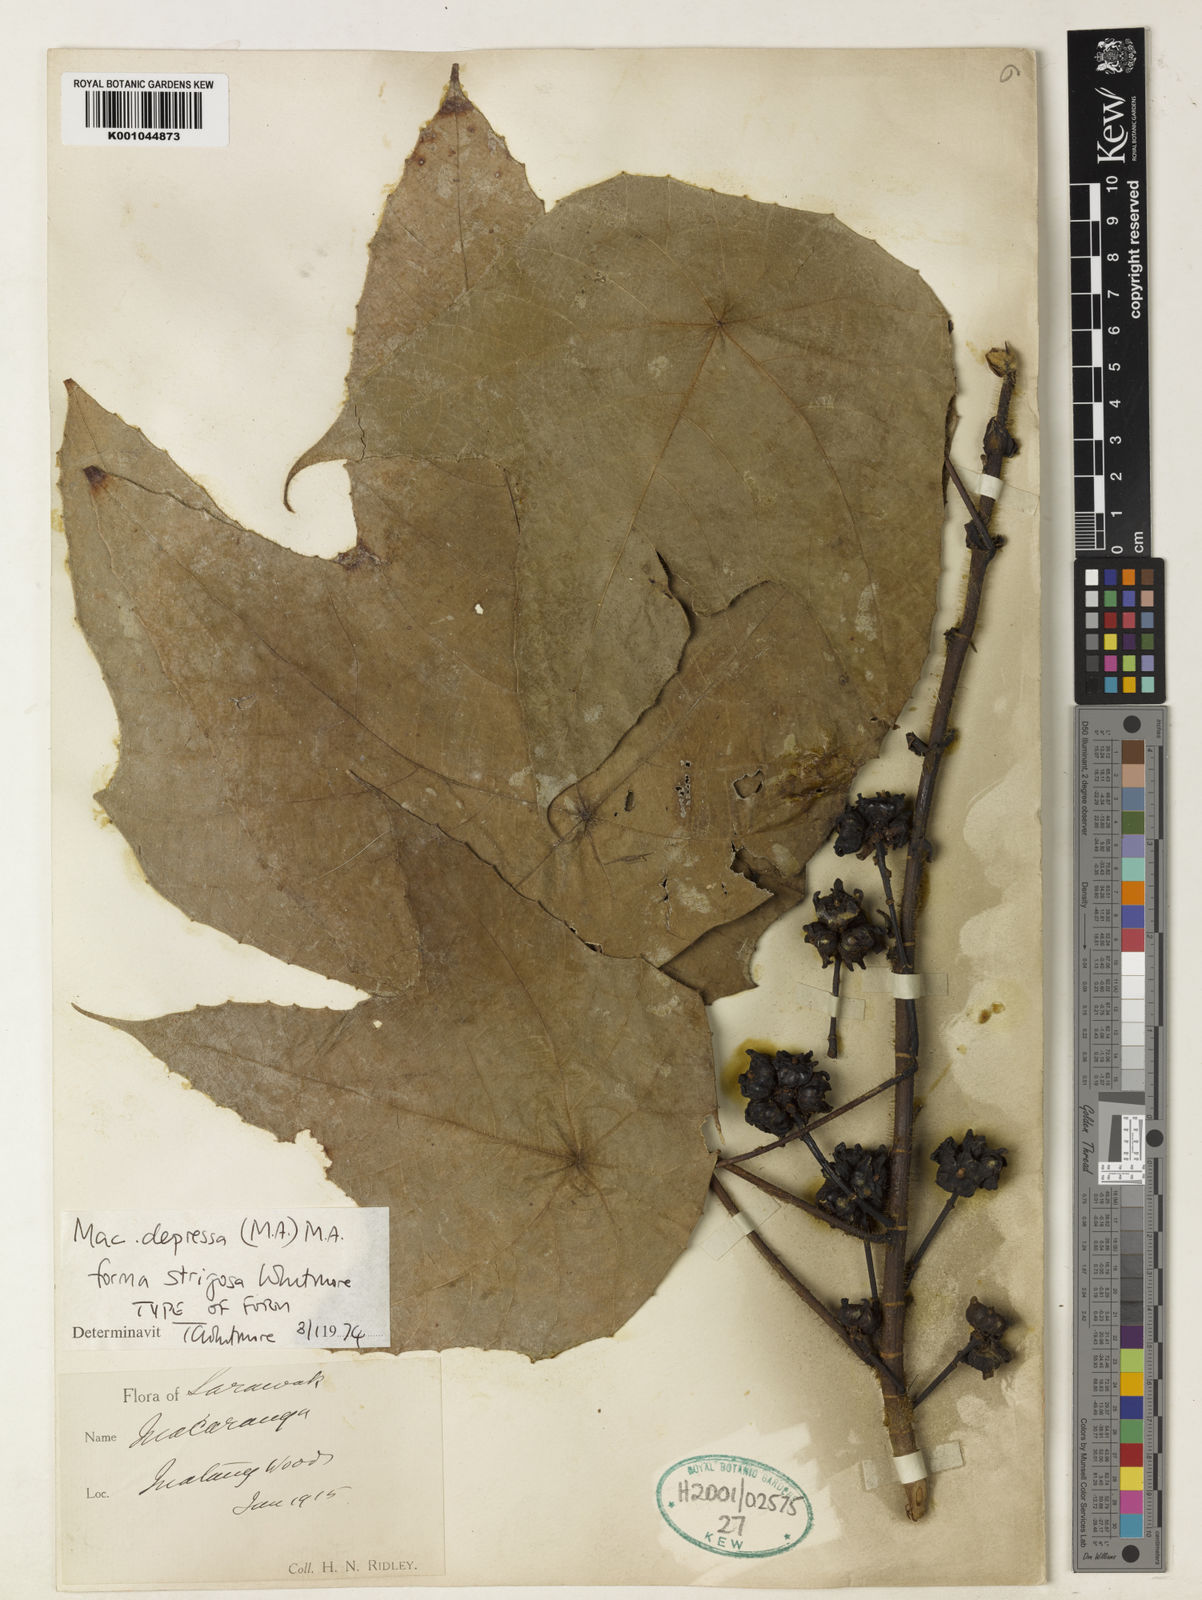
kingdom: Plantae
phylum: Tracheophyta
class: Magnoliopsida
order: Malpighiales
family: Euphorbiaceae
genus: Macaranga
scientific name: Macaranga
